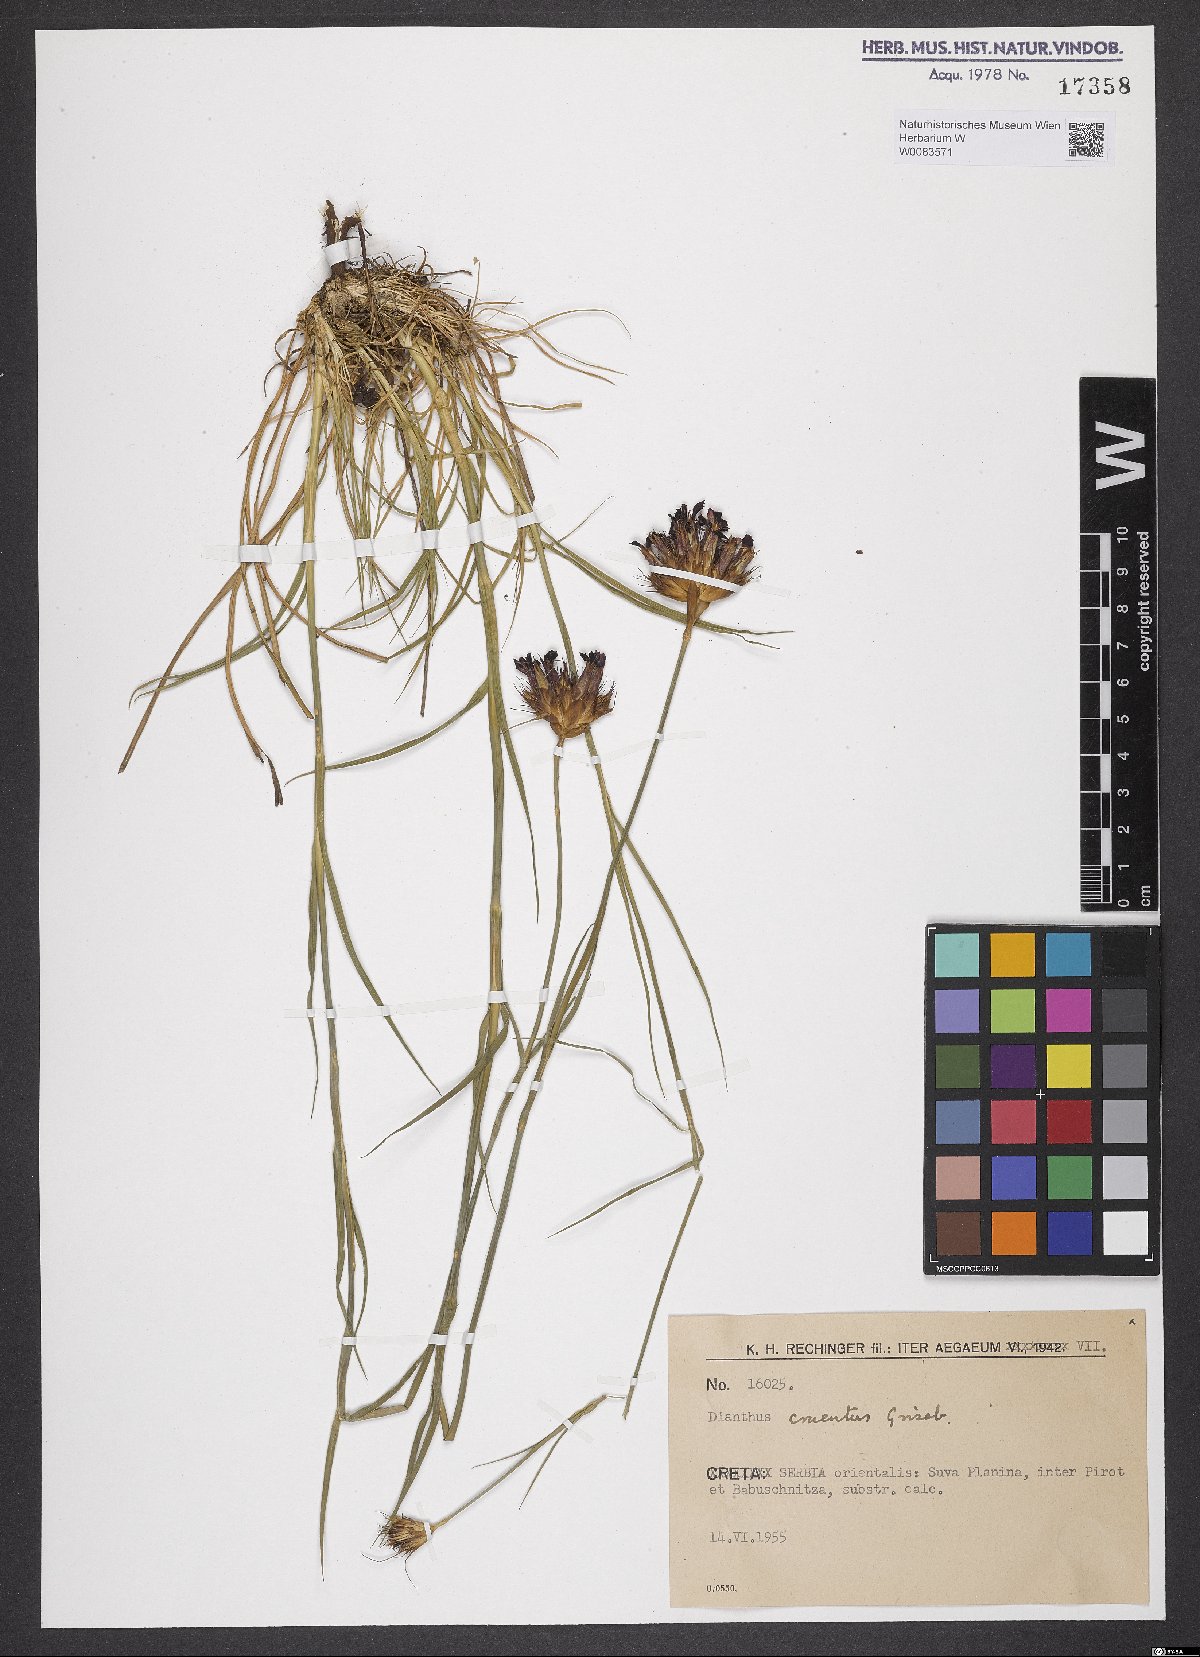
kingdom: Plantae
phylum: Tracheophyta
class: Magnoliopsida
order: Caryophyllales
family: Caryophyllaceae
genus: Dianthus
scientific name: Dianthus cruentus
